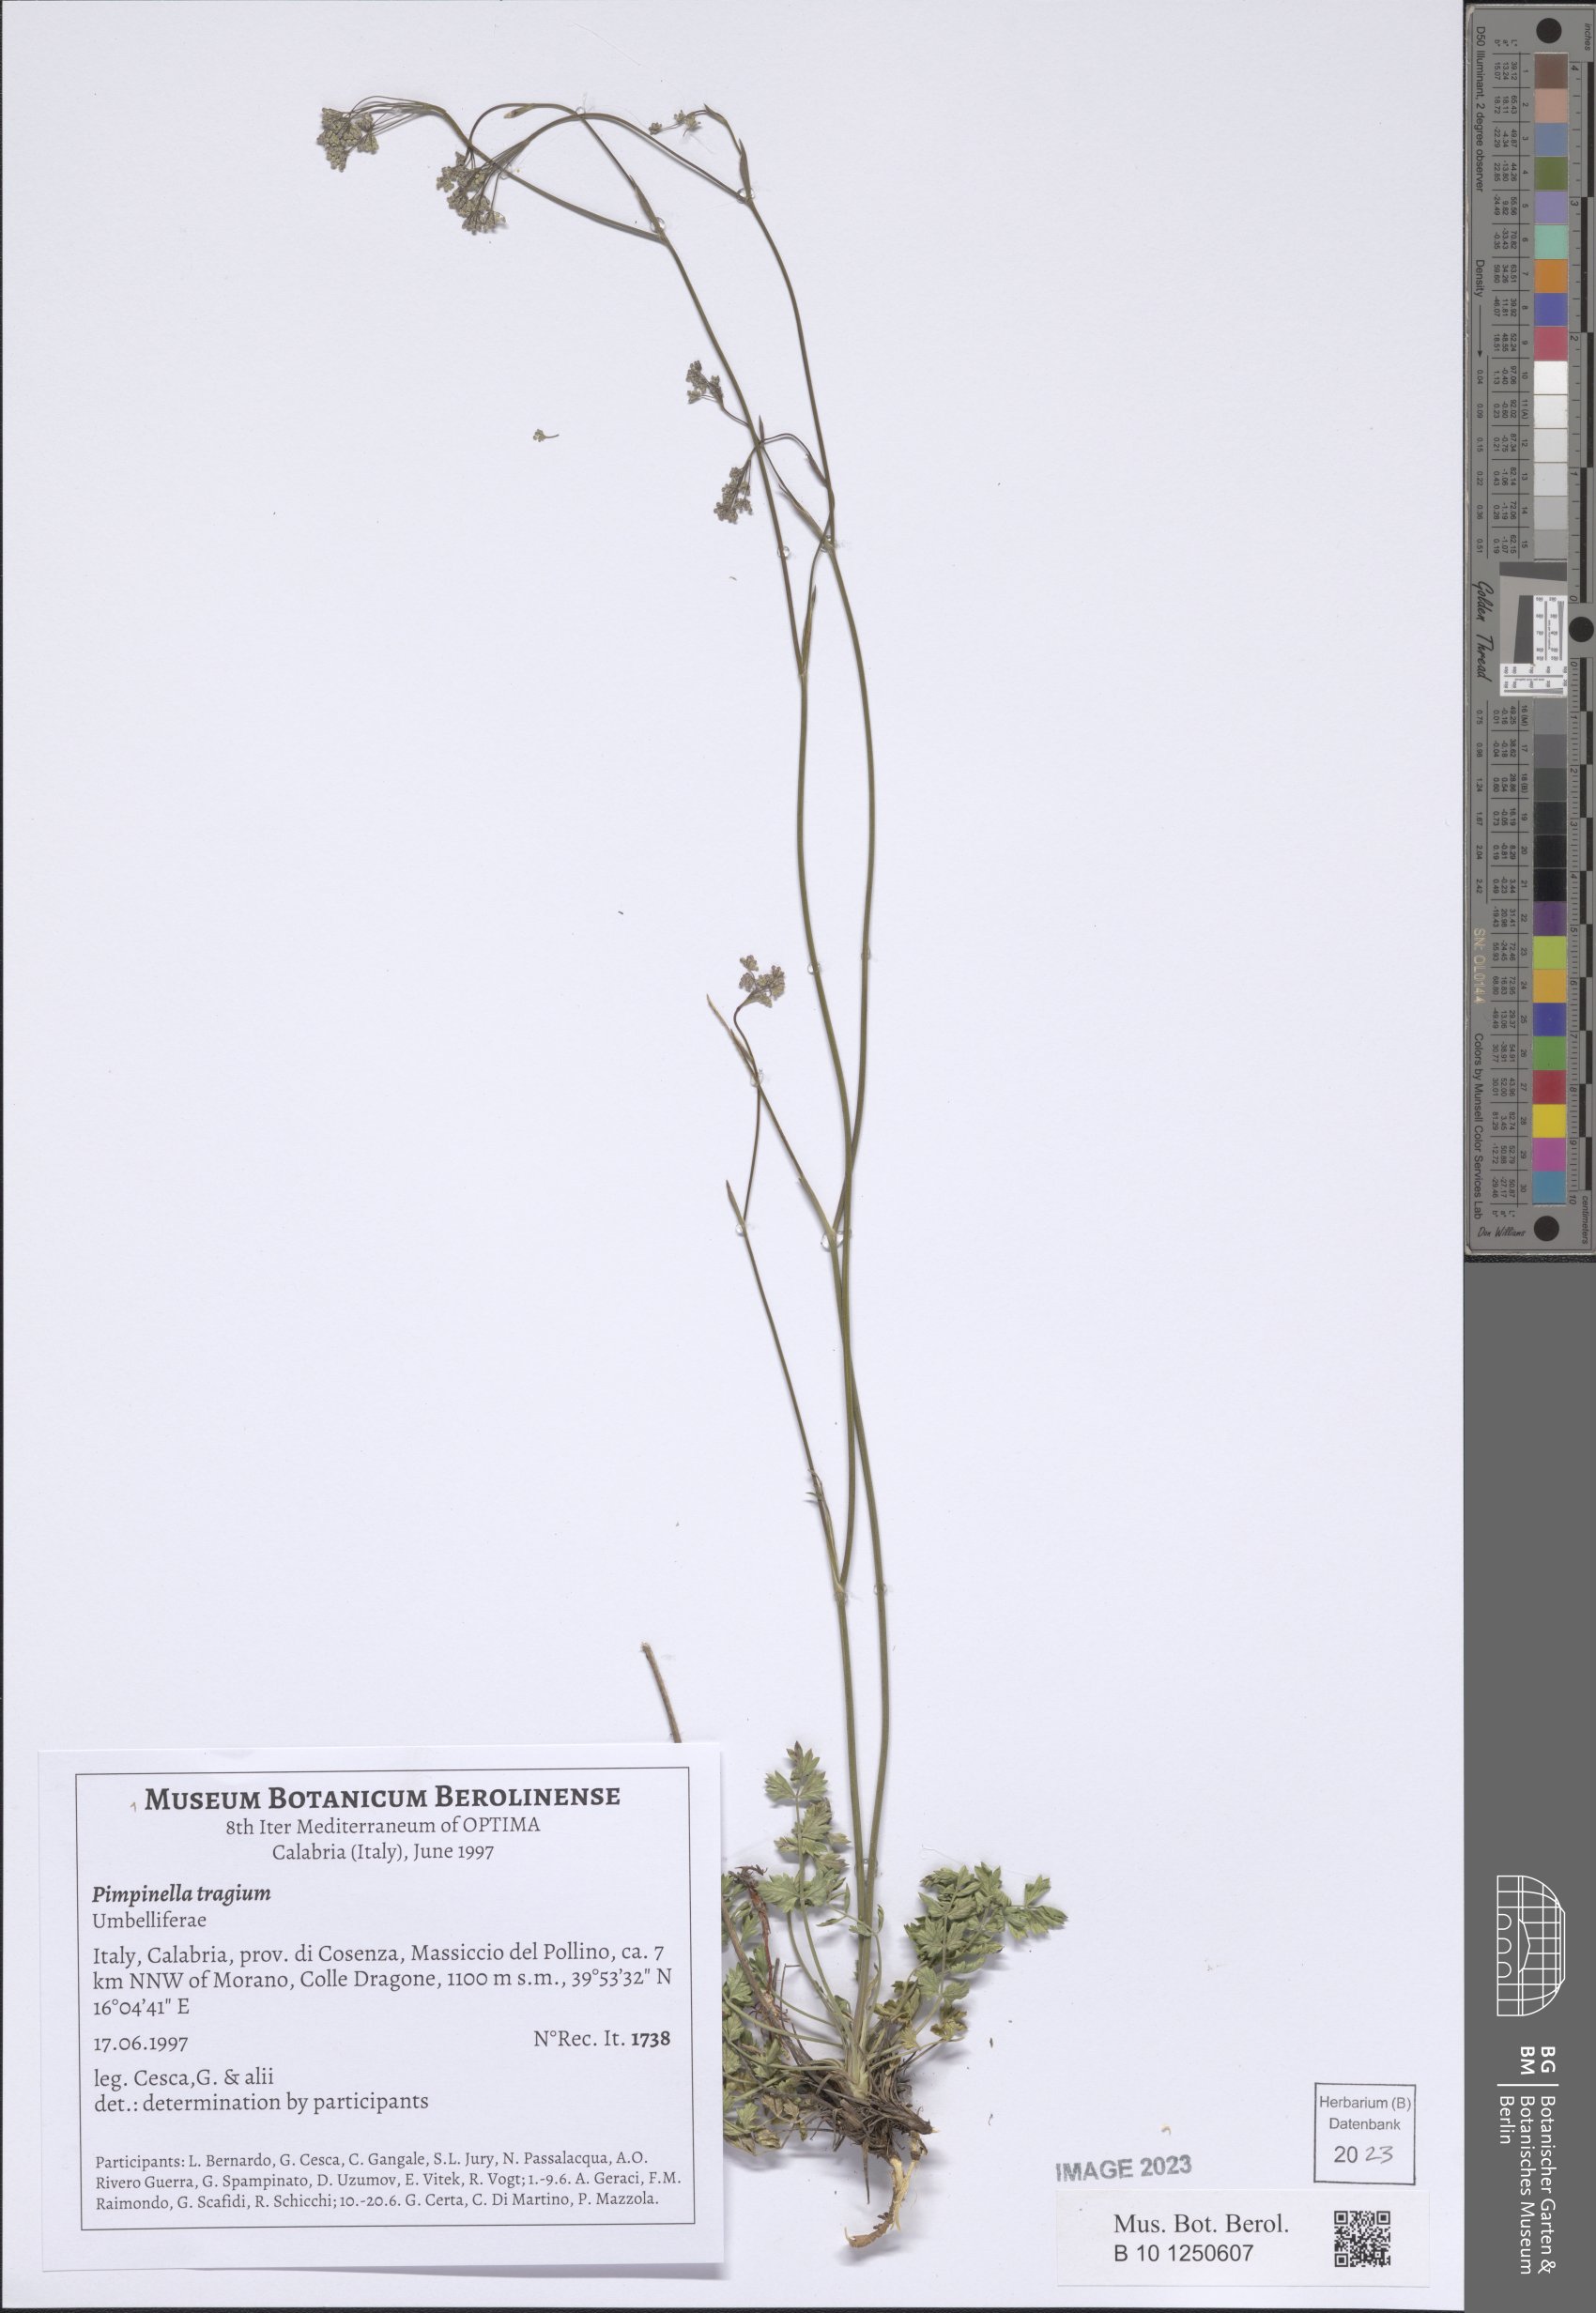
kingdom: Plantae
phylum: Tracheophyta
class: Magnoliopsida
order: Apiales
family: Apiaceae
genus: Pimpinella
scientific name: Pimpinella tragium
